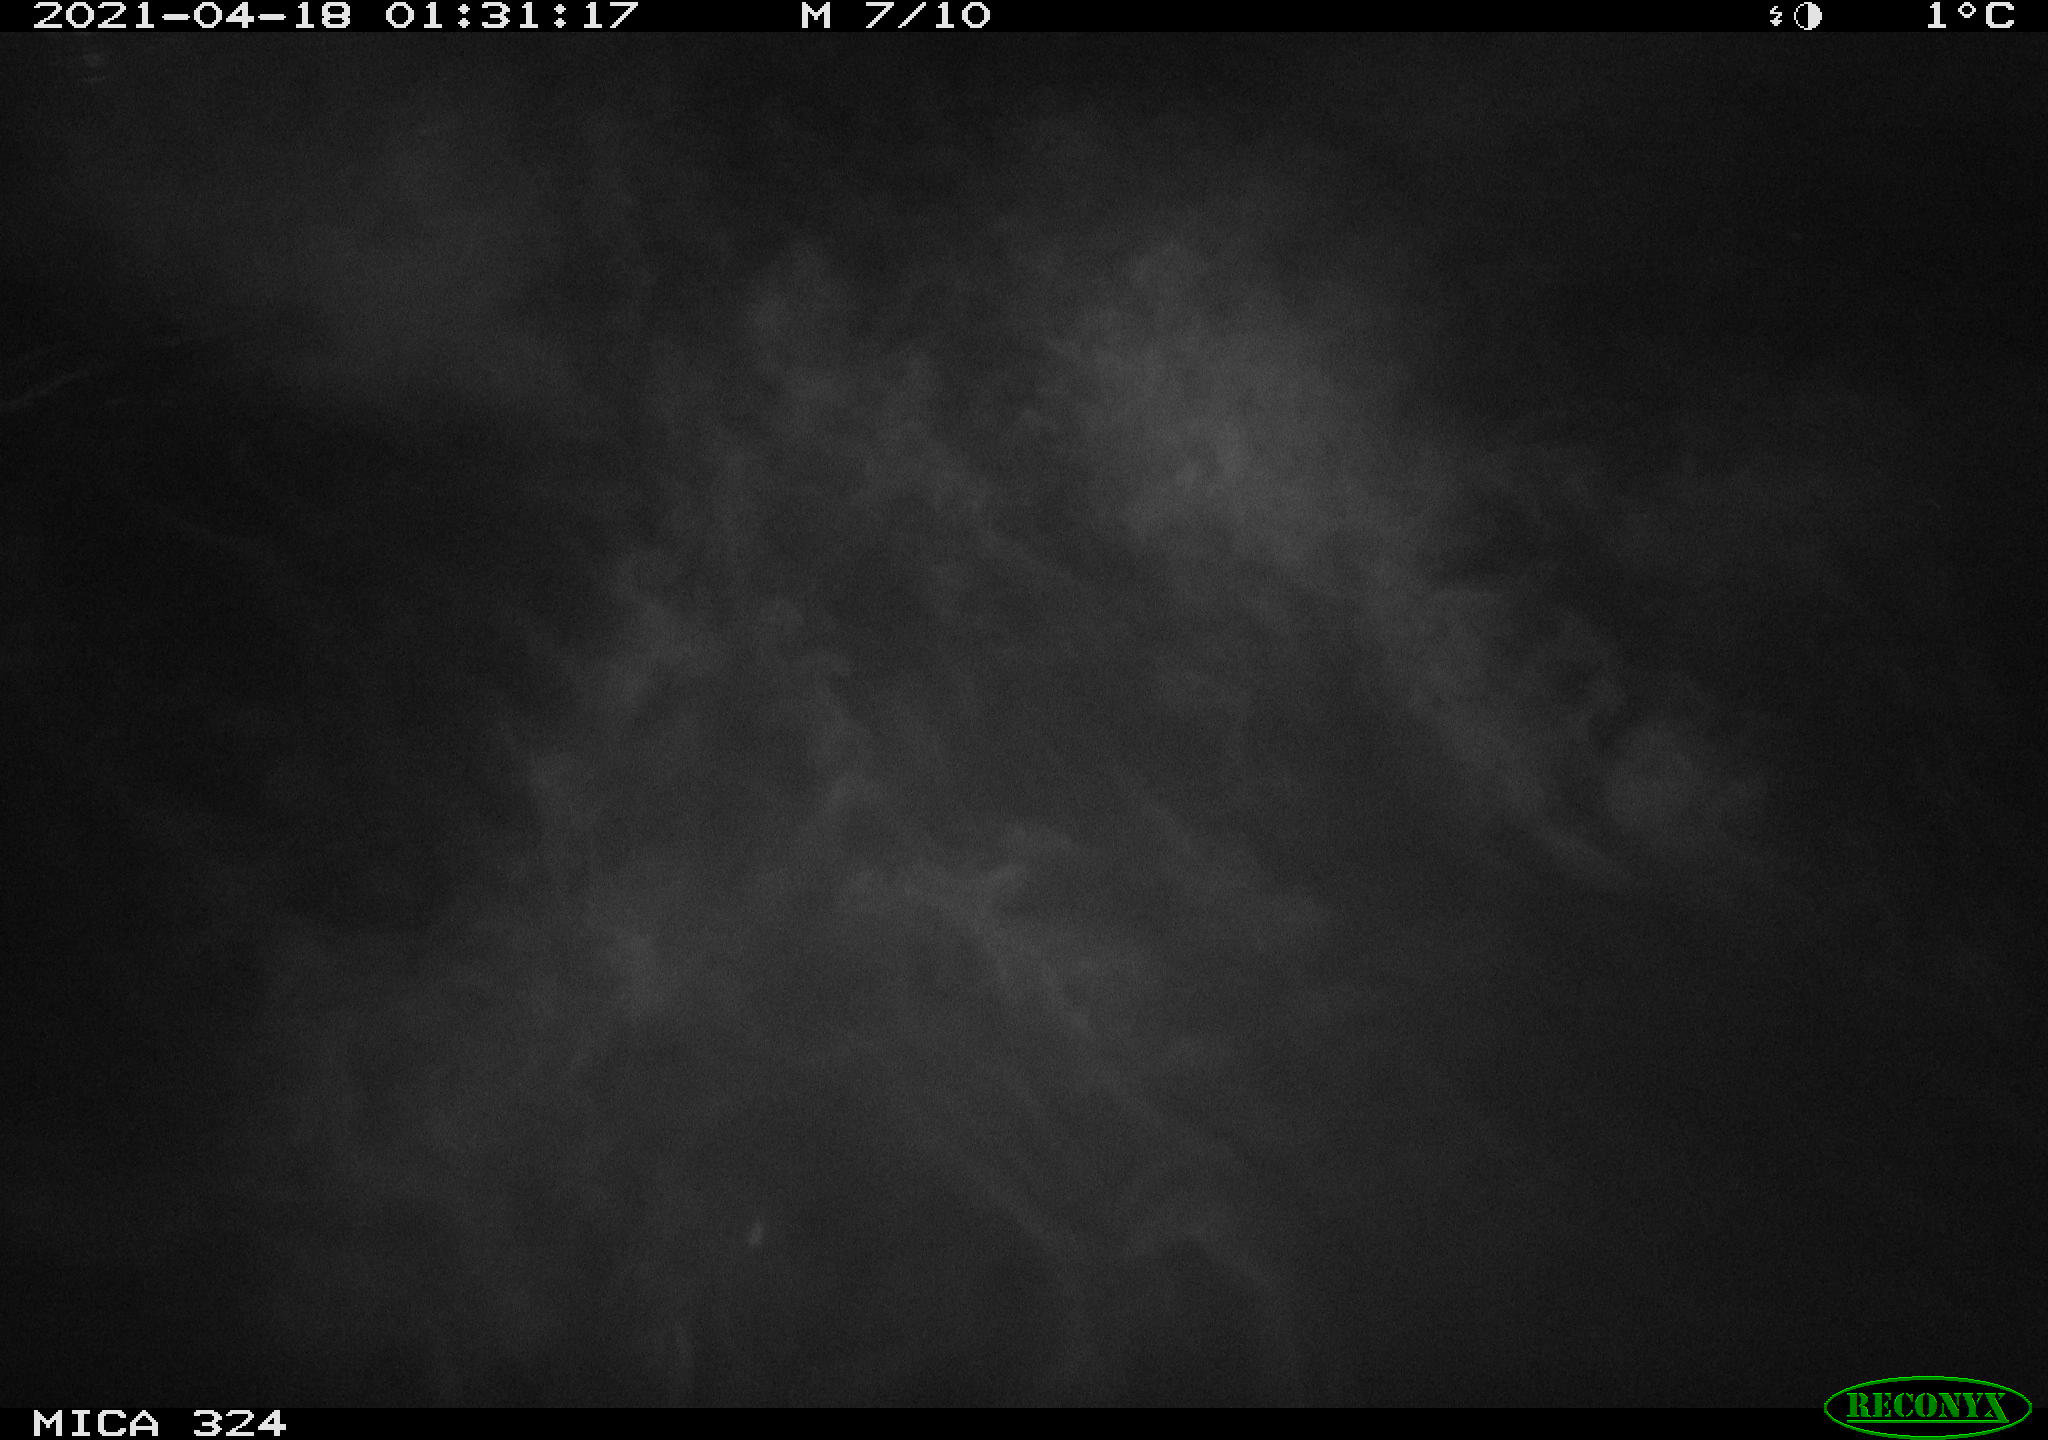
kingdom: Animalia
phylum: Chordata
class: Aves
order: Gruiformes
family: Rallidae
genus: Gallinula
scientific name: Gallinula chloropus
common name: Common moorhen
